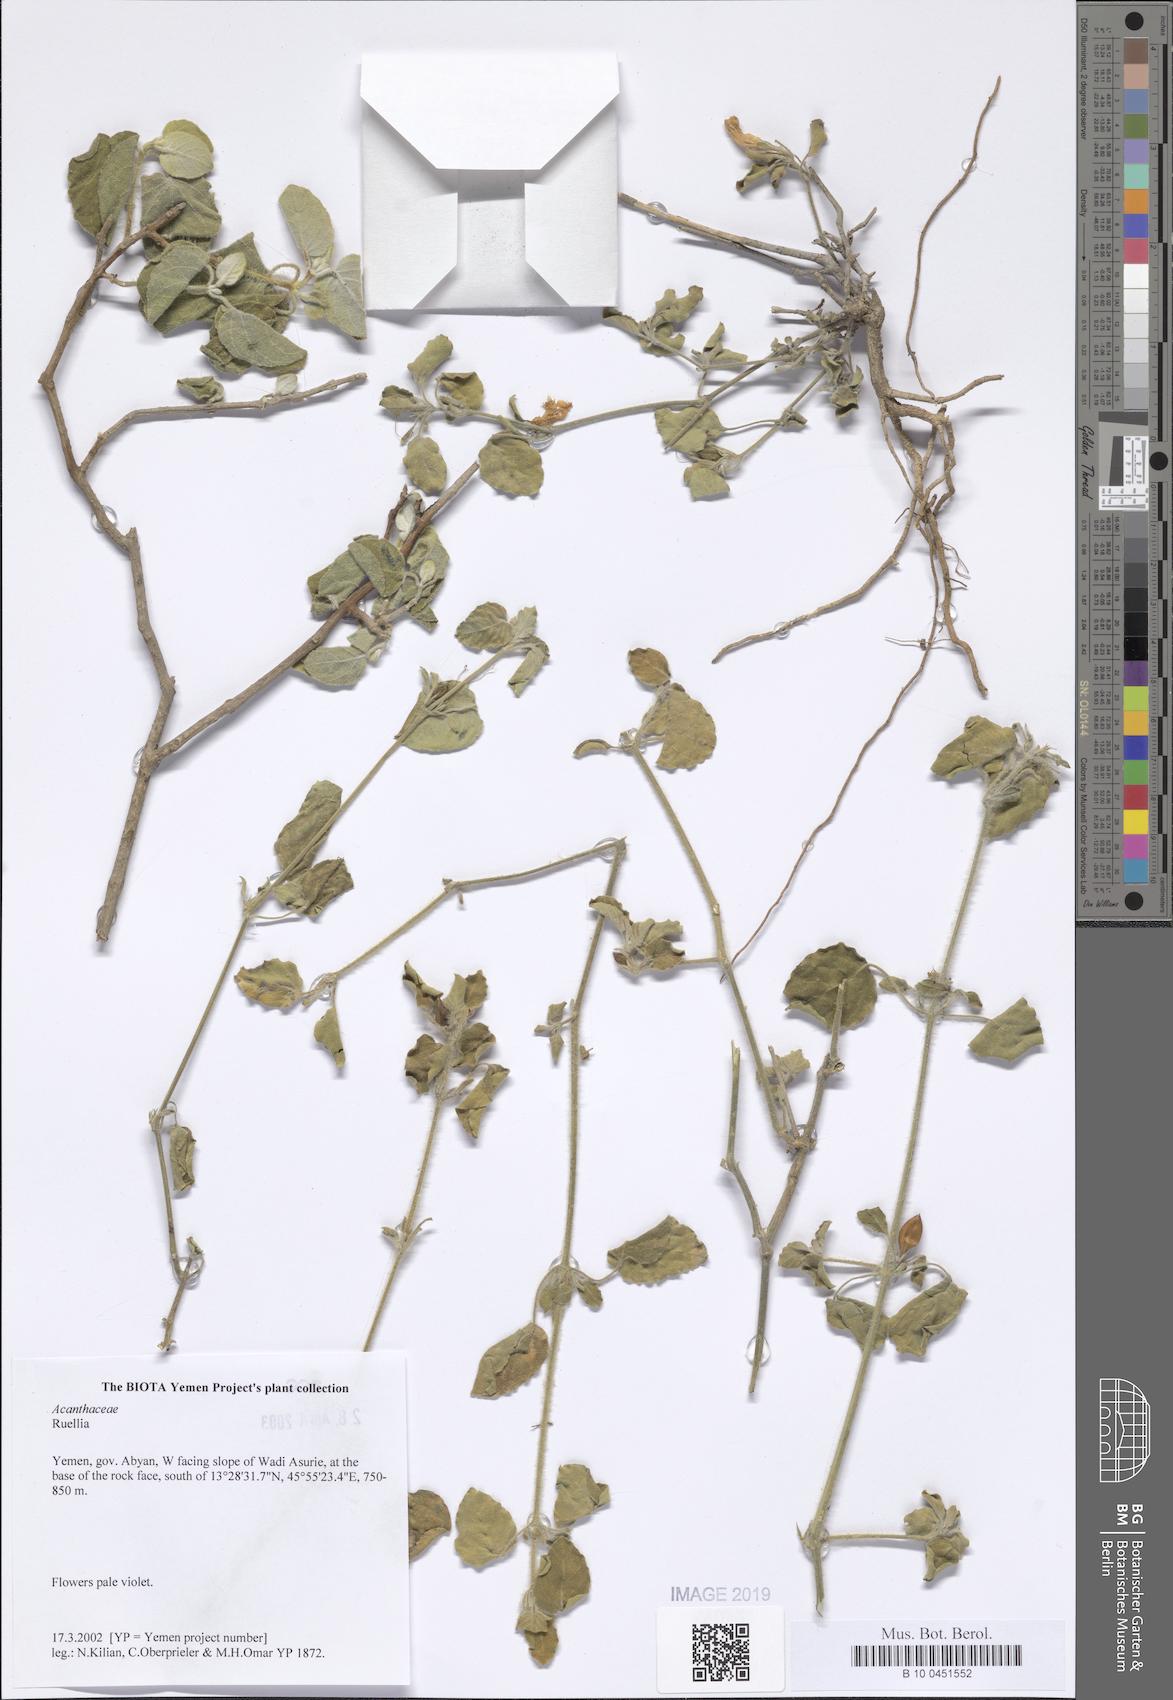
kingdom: Plantae
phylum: Tracheophyta
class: Magnoliopsida
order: Lamiales
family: Acanthaceae
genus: Ruellia
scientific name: Ruellia
